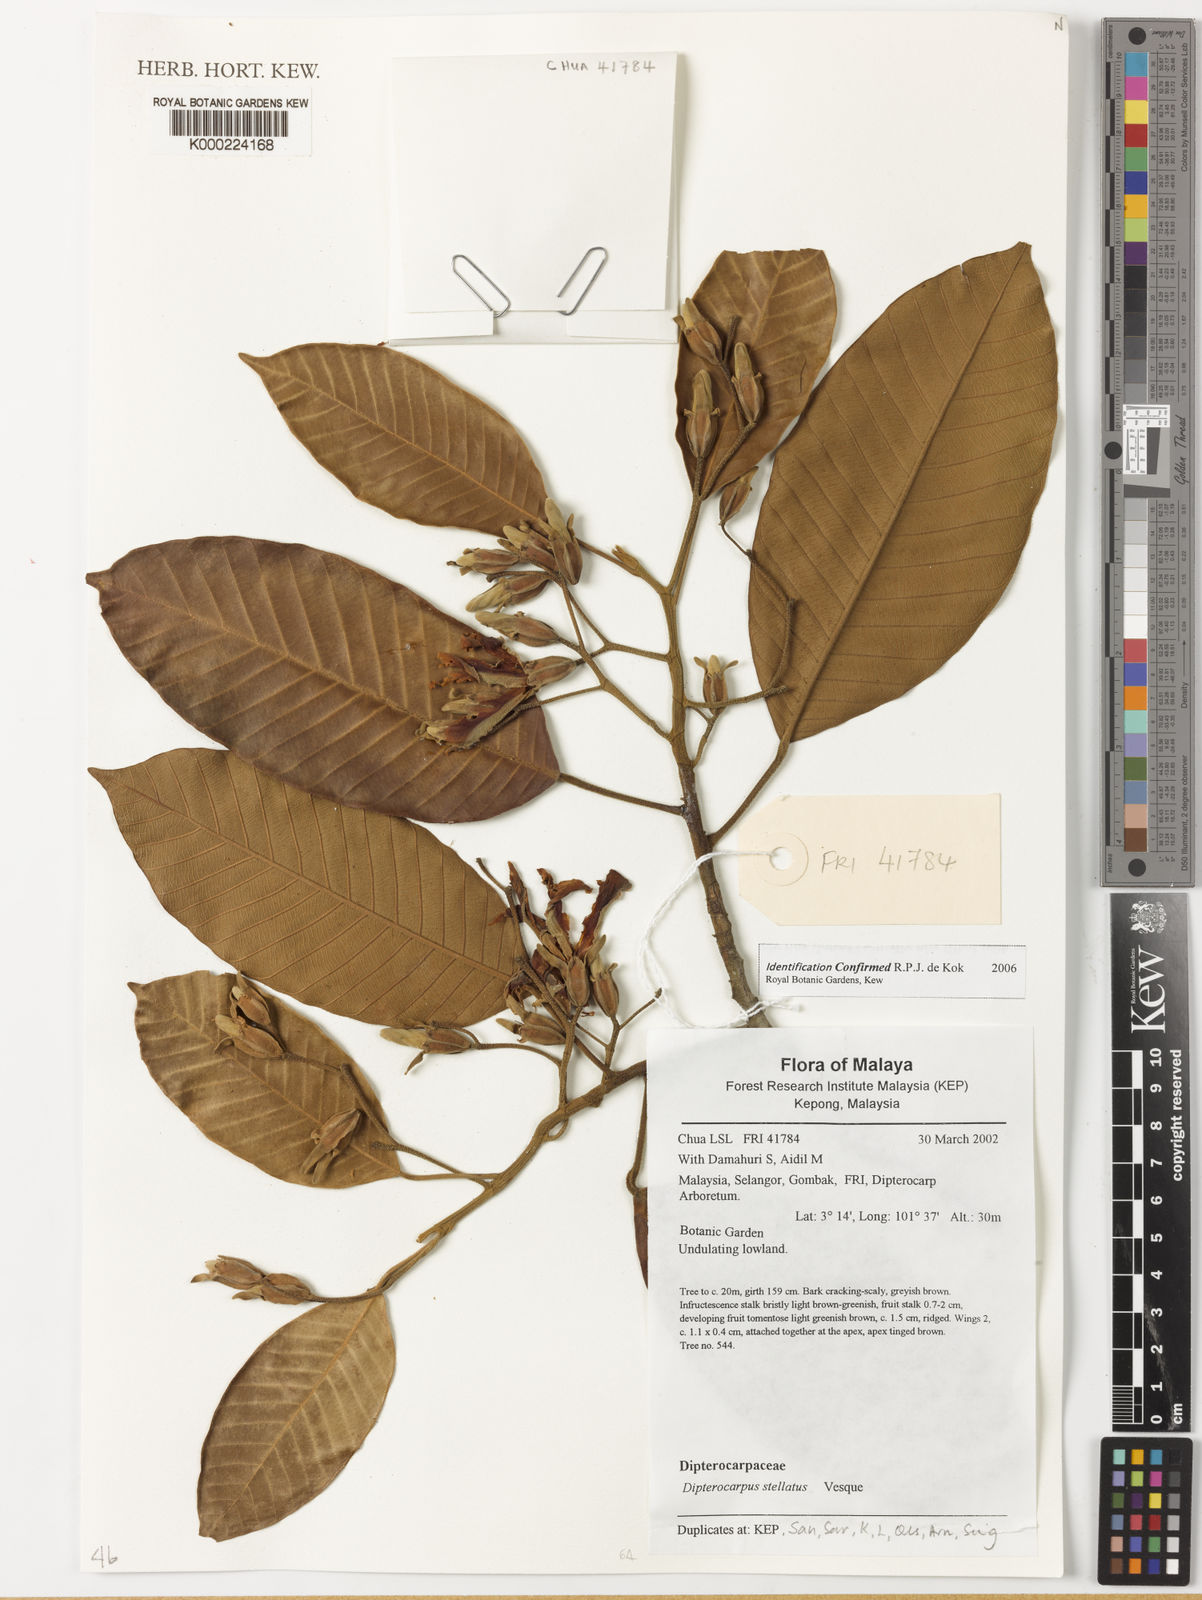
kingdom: Plantae
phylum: Tracheophyta
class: Magnoliopsida
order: Malvales
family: Dipterocarpaceae
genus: Dipterocarpus
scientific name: Dipterocarpus stellatus
